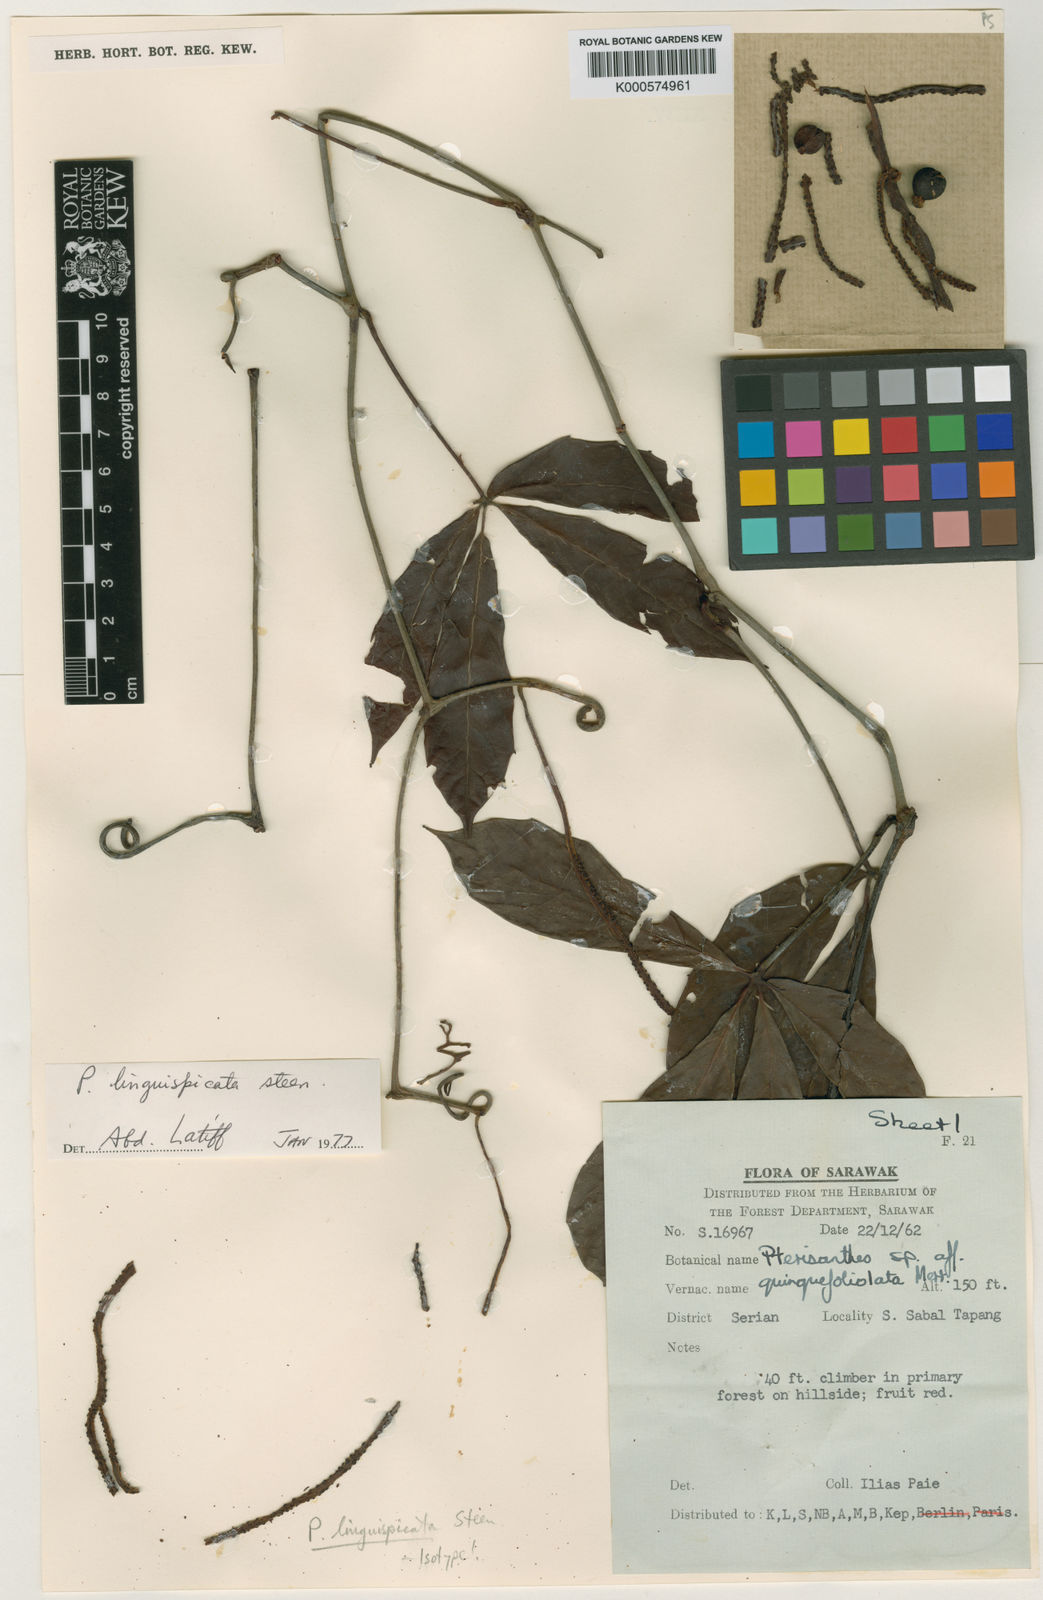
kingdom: Plantae
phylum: Tracheophyta
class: Magnoliopsida
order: Vitales
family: Vitaceae
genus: Pterisanthes
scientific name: Pterisanthes quinquefoliolata
